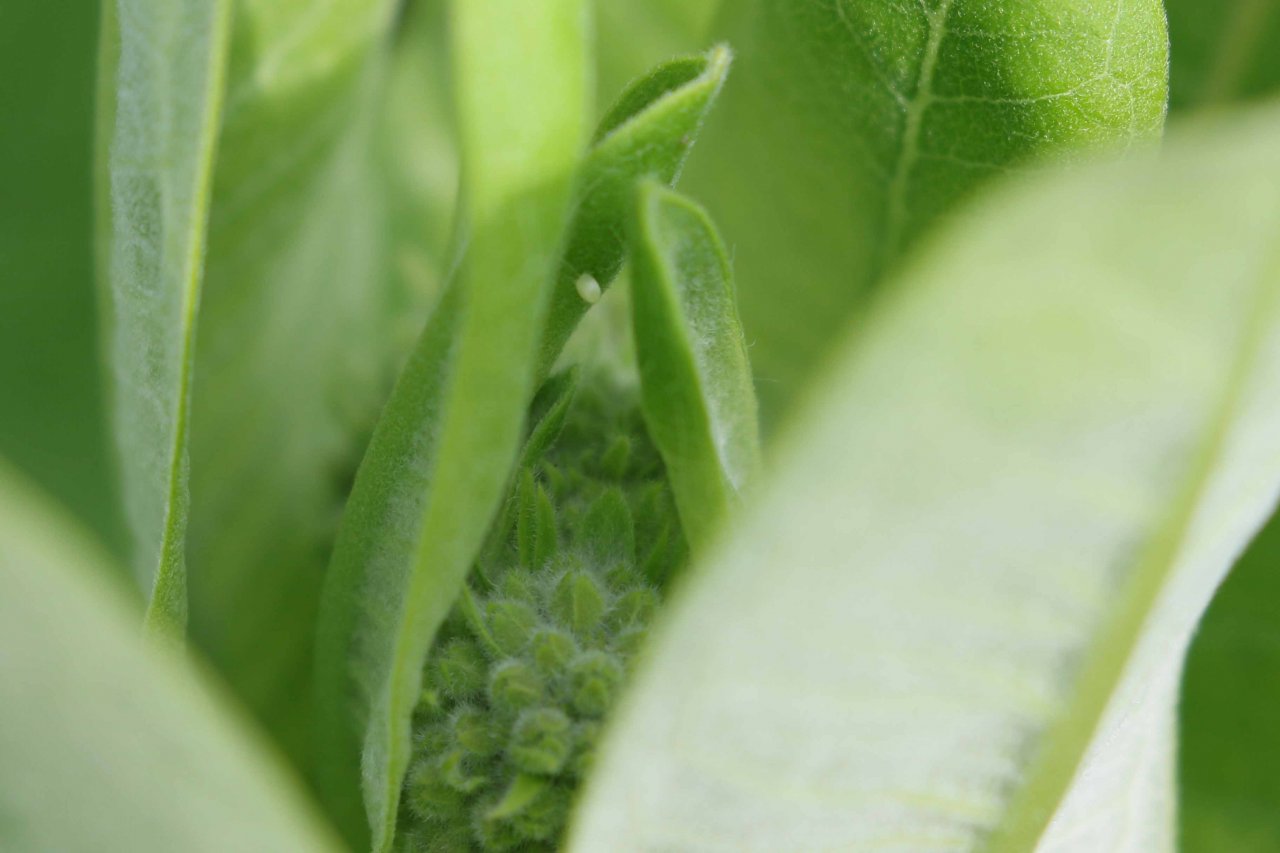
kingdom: Animalia
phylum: Arthropoda
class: Insecta
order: Lepidoptera
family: Nymphalidae
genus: Danaus
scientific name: Danaus plexippus
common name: Monarch
